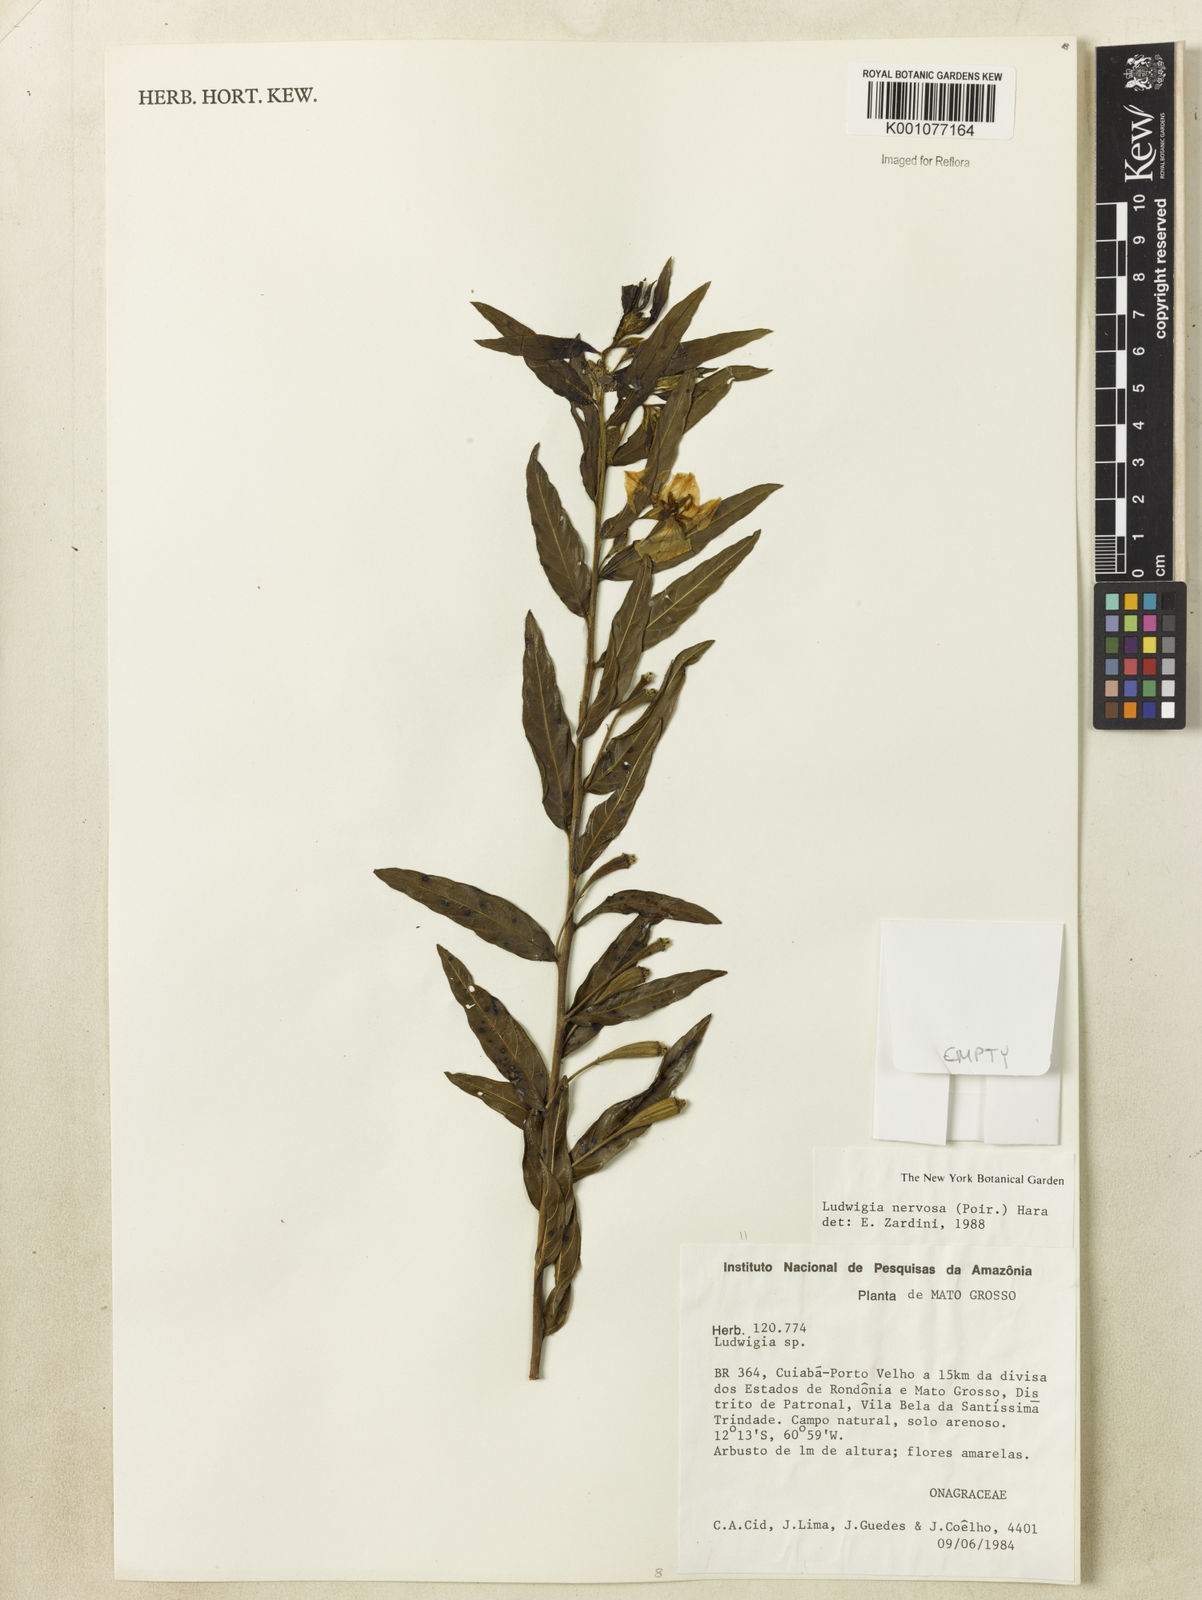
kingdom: Plantae
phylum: Tracheophyta
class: Magnoliopsida
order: Myrtales
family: Onagraceae
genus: Ludwigia
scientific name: Ludwigia nervosa
